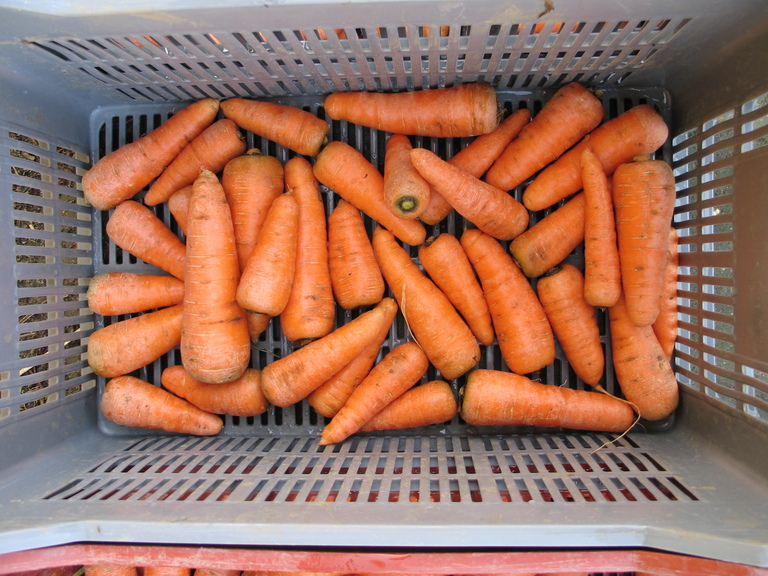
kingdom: Plantae
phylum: Tracheophyta
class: Magnoliopsida
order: Apiales
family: Apiaceae
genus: Daucus
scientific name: Daucus carota
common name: Wild carrot
